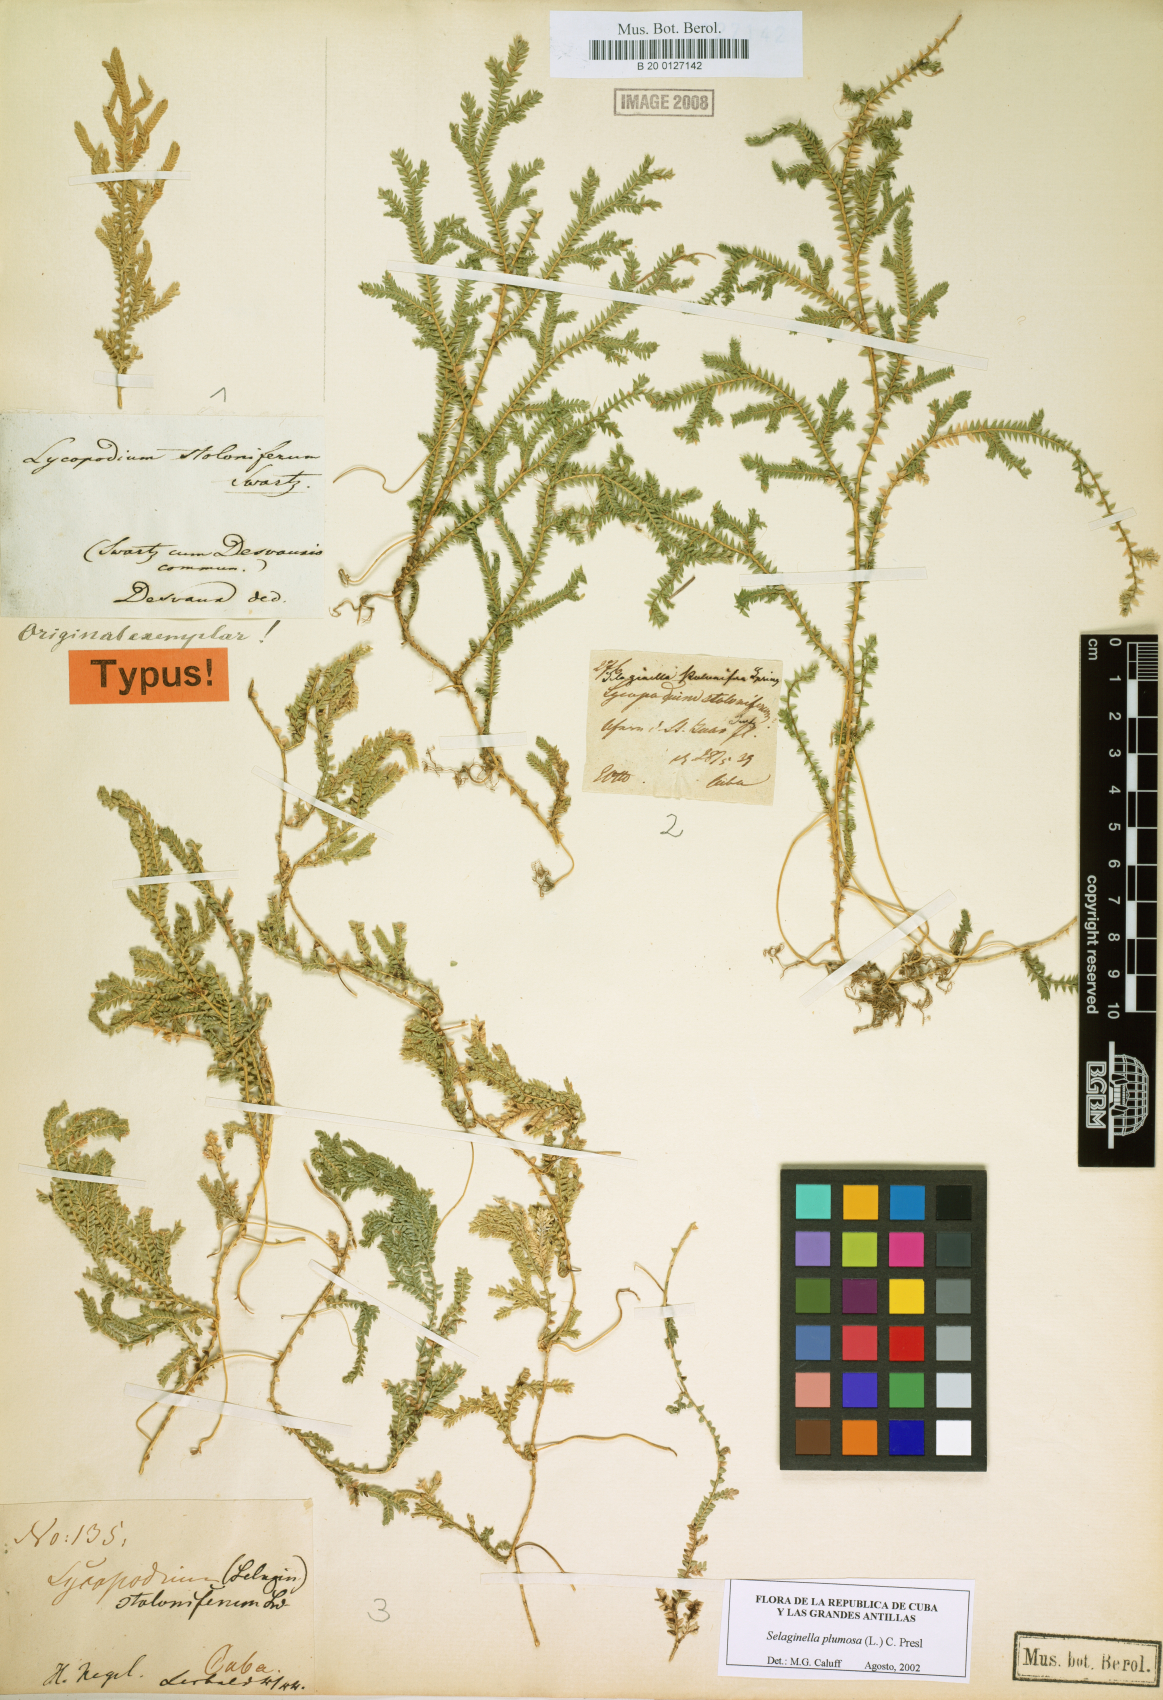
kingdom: Plantae
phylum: Tracheophyta
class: Lycopodiopsida
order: Selaginellales
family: Selaginellaceae
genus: Selaginella
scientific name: Selaginella plumosa
